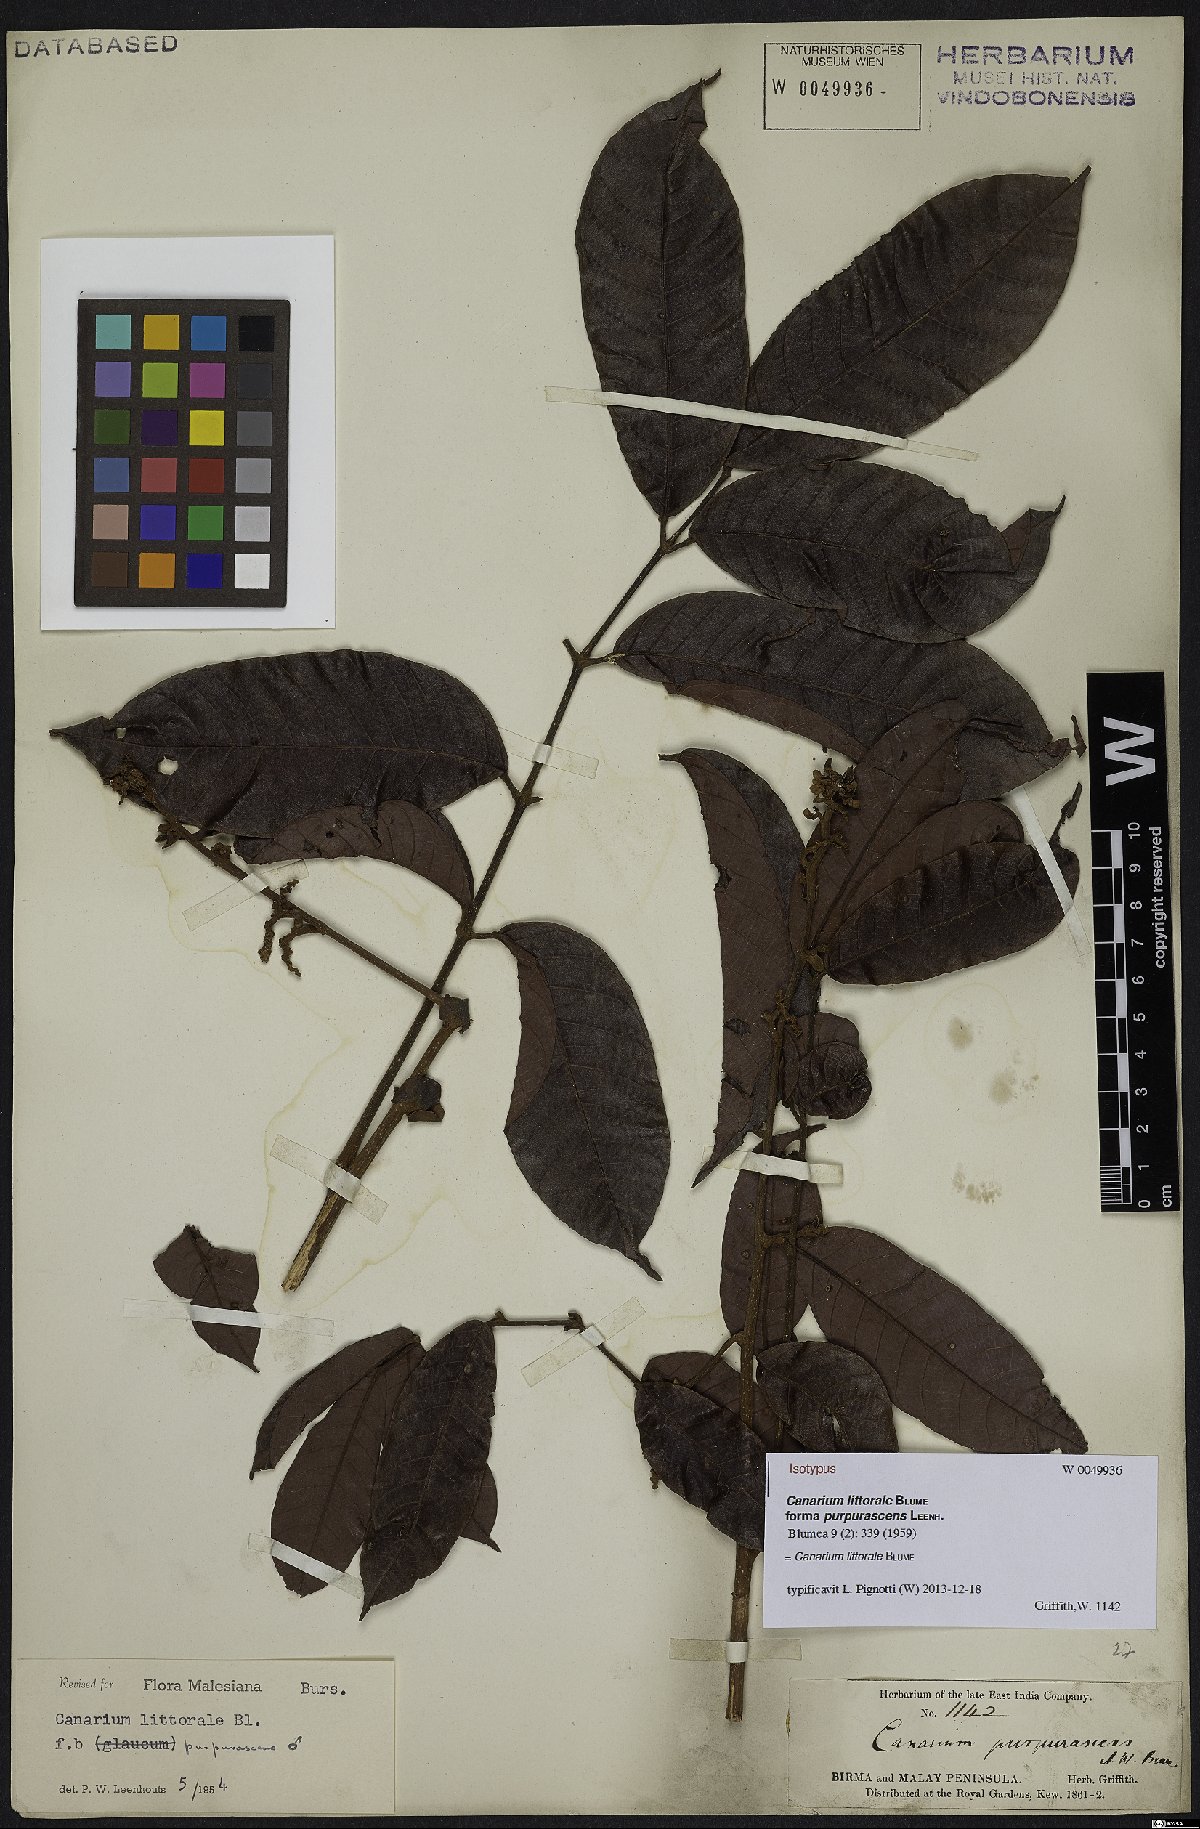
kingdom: Plantae
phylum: Tracheophyta
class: Magnoliopsida
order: Sapindales
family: Burseraceae
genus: Canarium
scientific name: Canarium littorale
